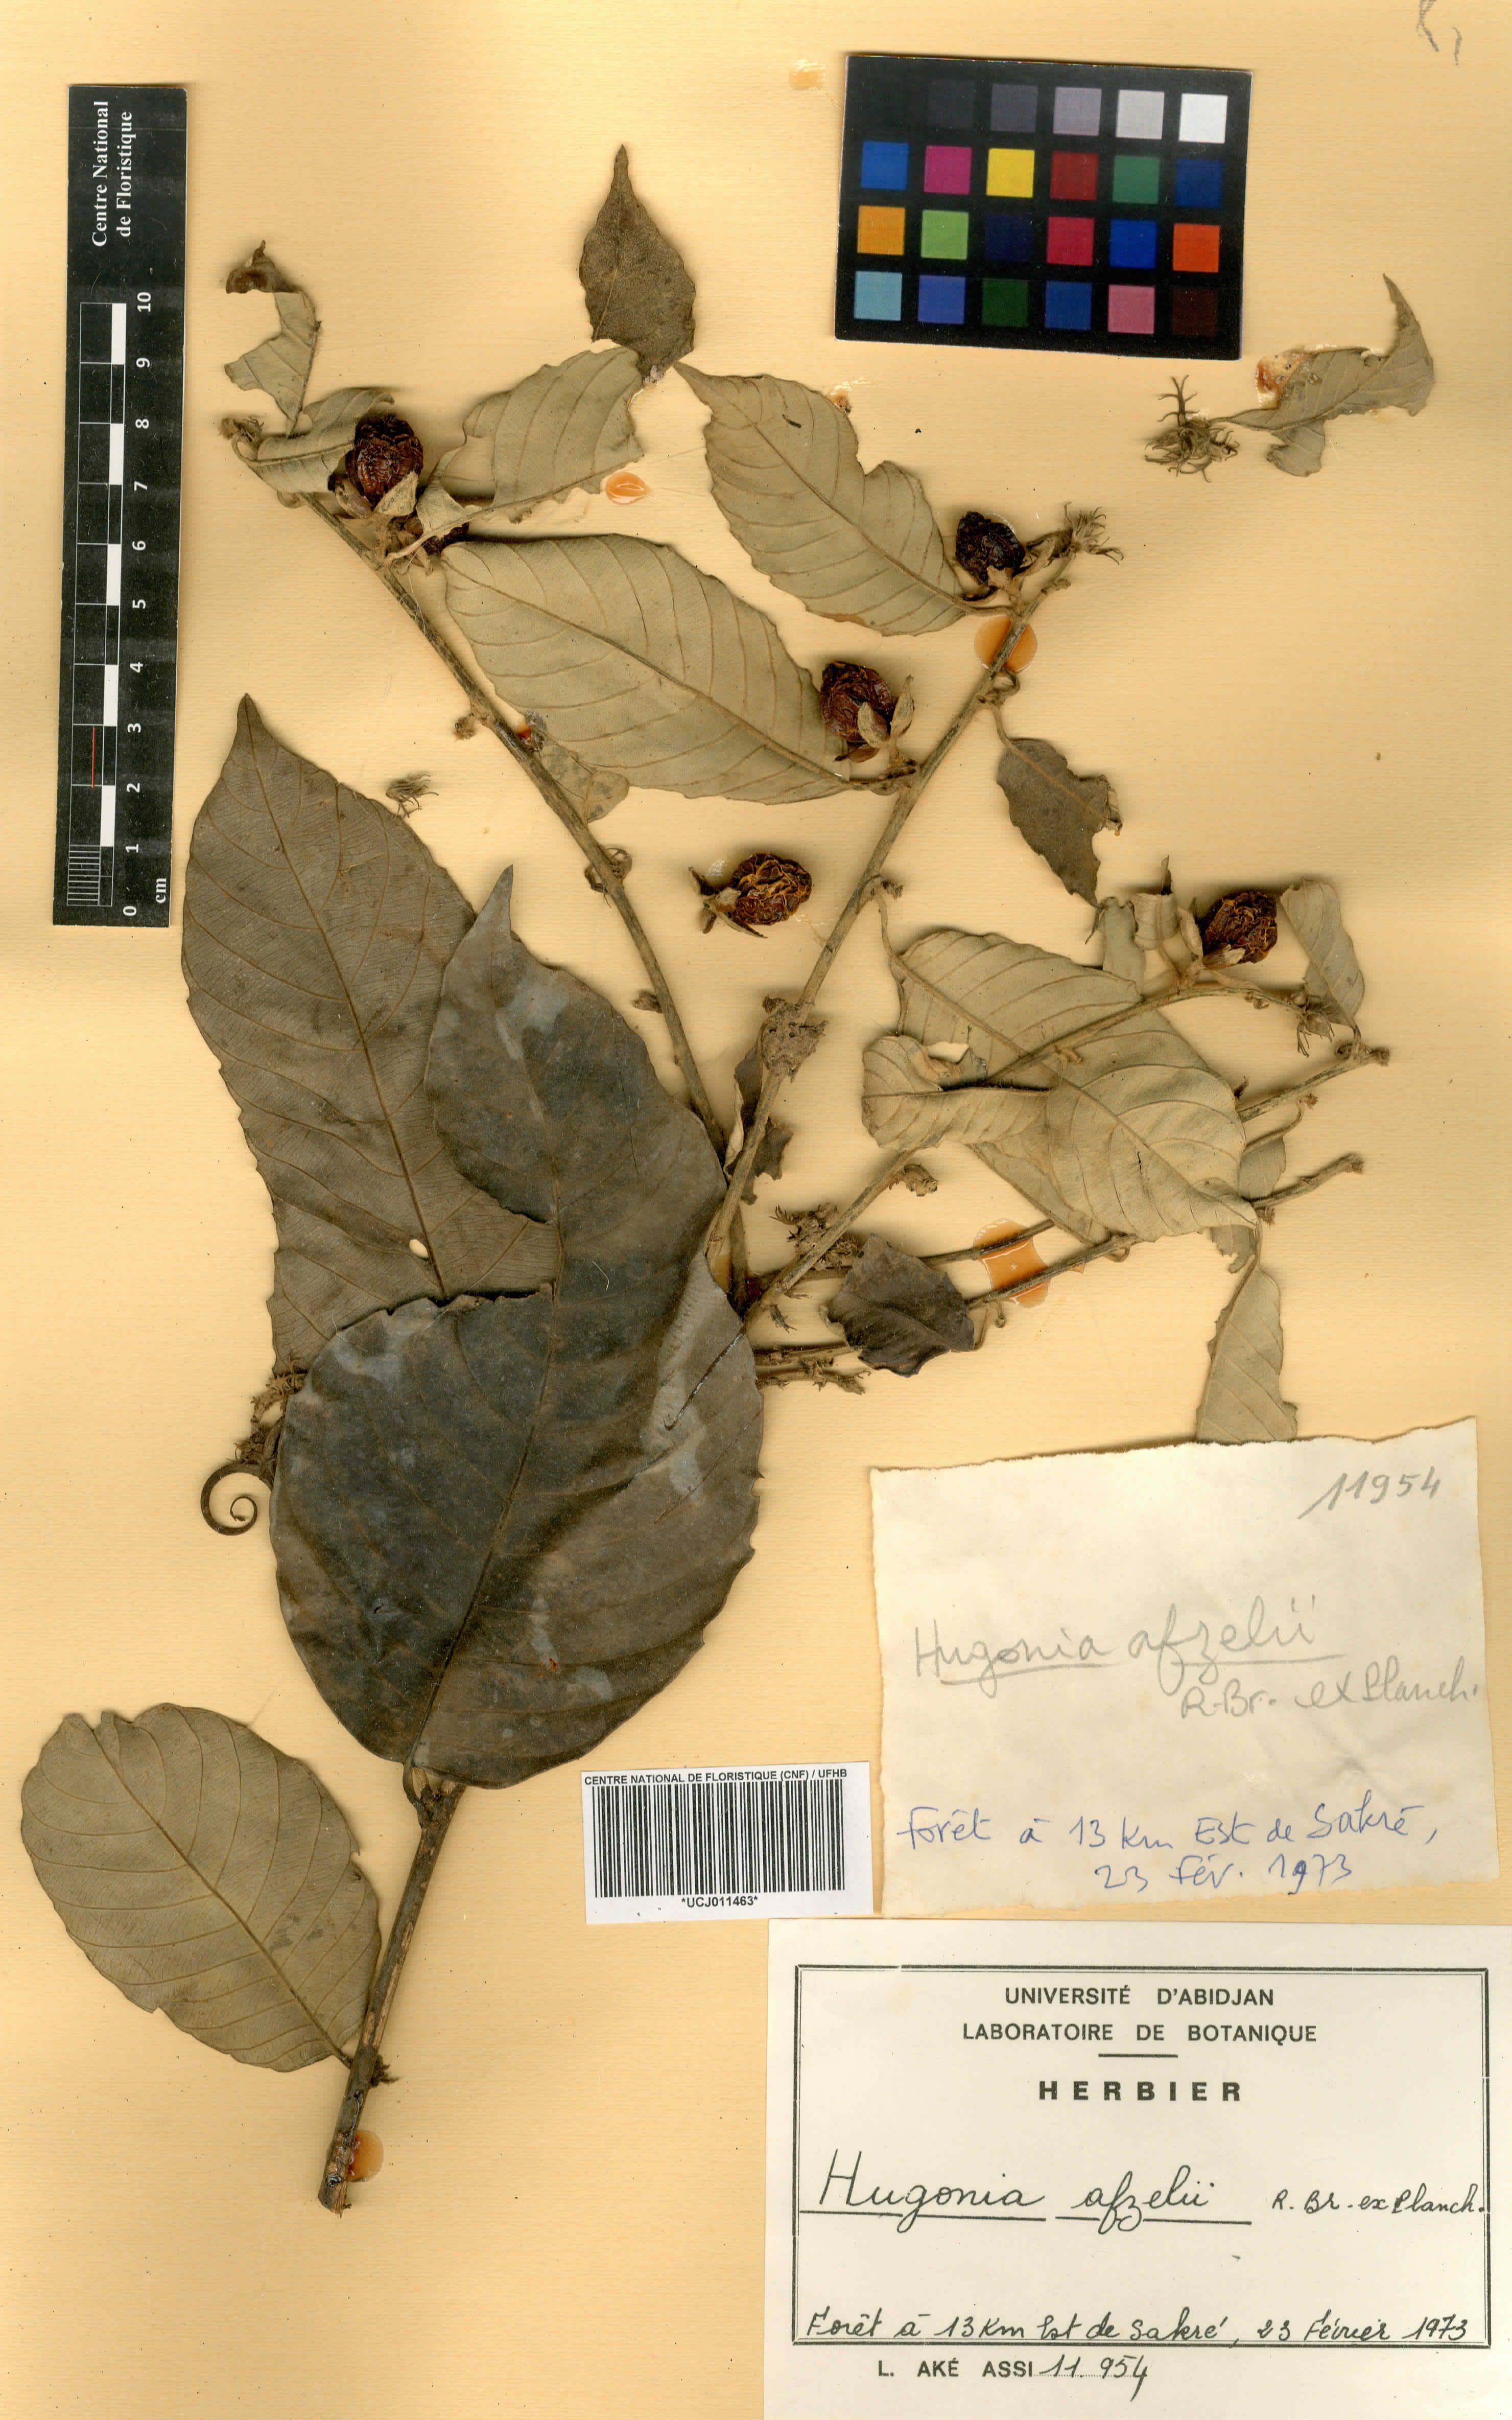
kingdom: Plantae
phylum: Tracheophyta
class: Magnoliopsida
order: Malpighiales
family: Linaceae
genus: Hugonia
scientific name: Hugonia afzelii
